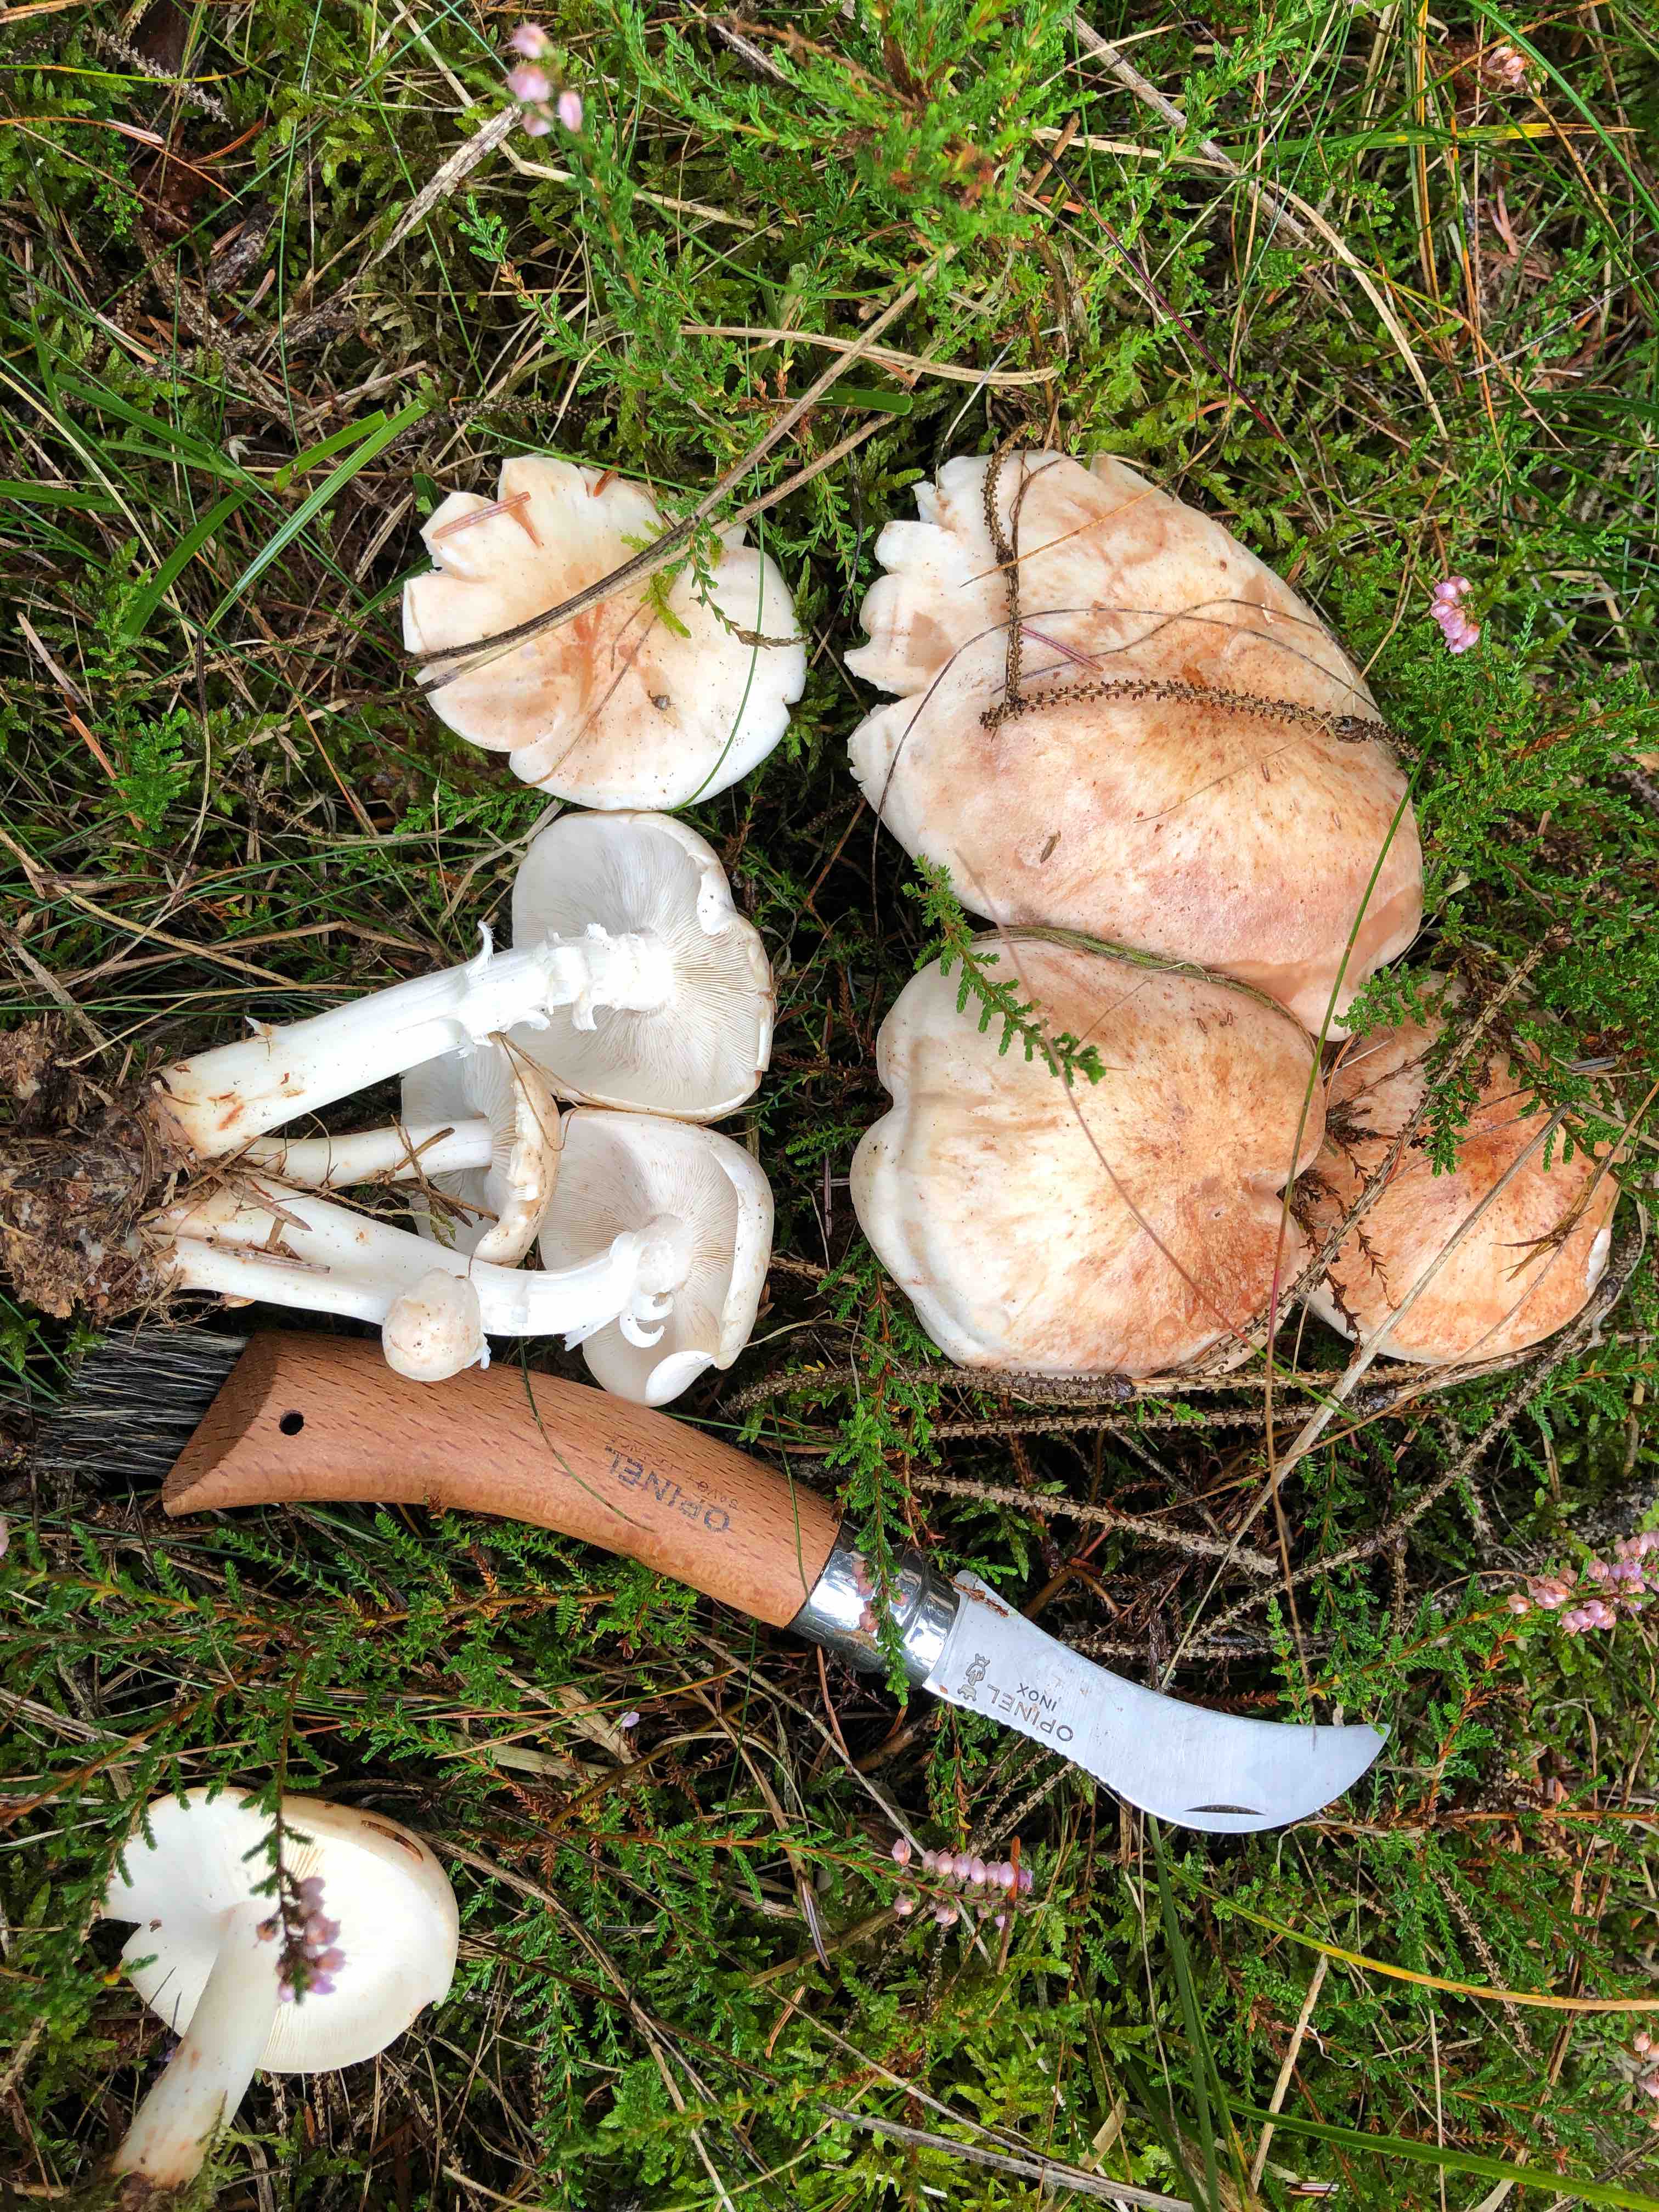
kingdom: Fungi
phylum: Basidiomycota
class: Agaricomycetes
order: Agaricales
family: Omphalotaceae
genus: Rhodocollybia
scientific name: Rhodocollybia maculata
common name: plettet fladhat
